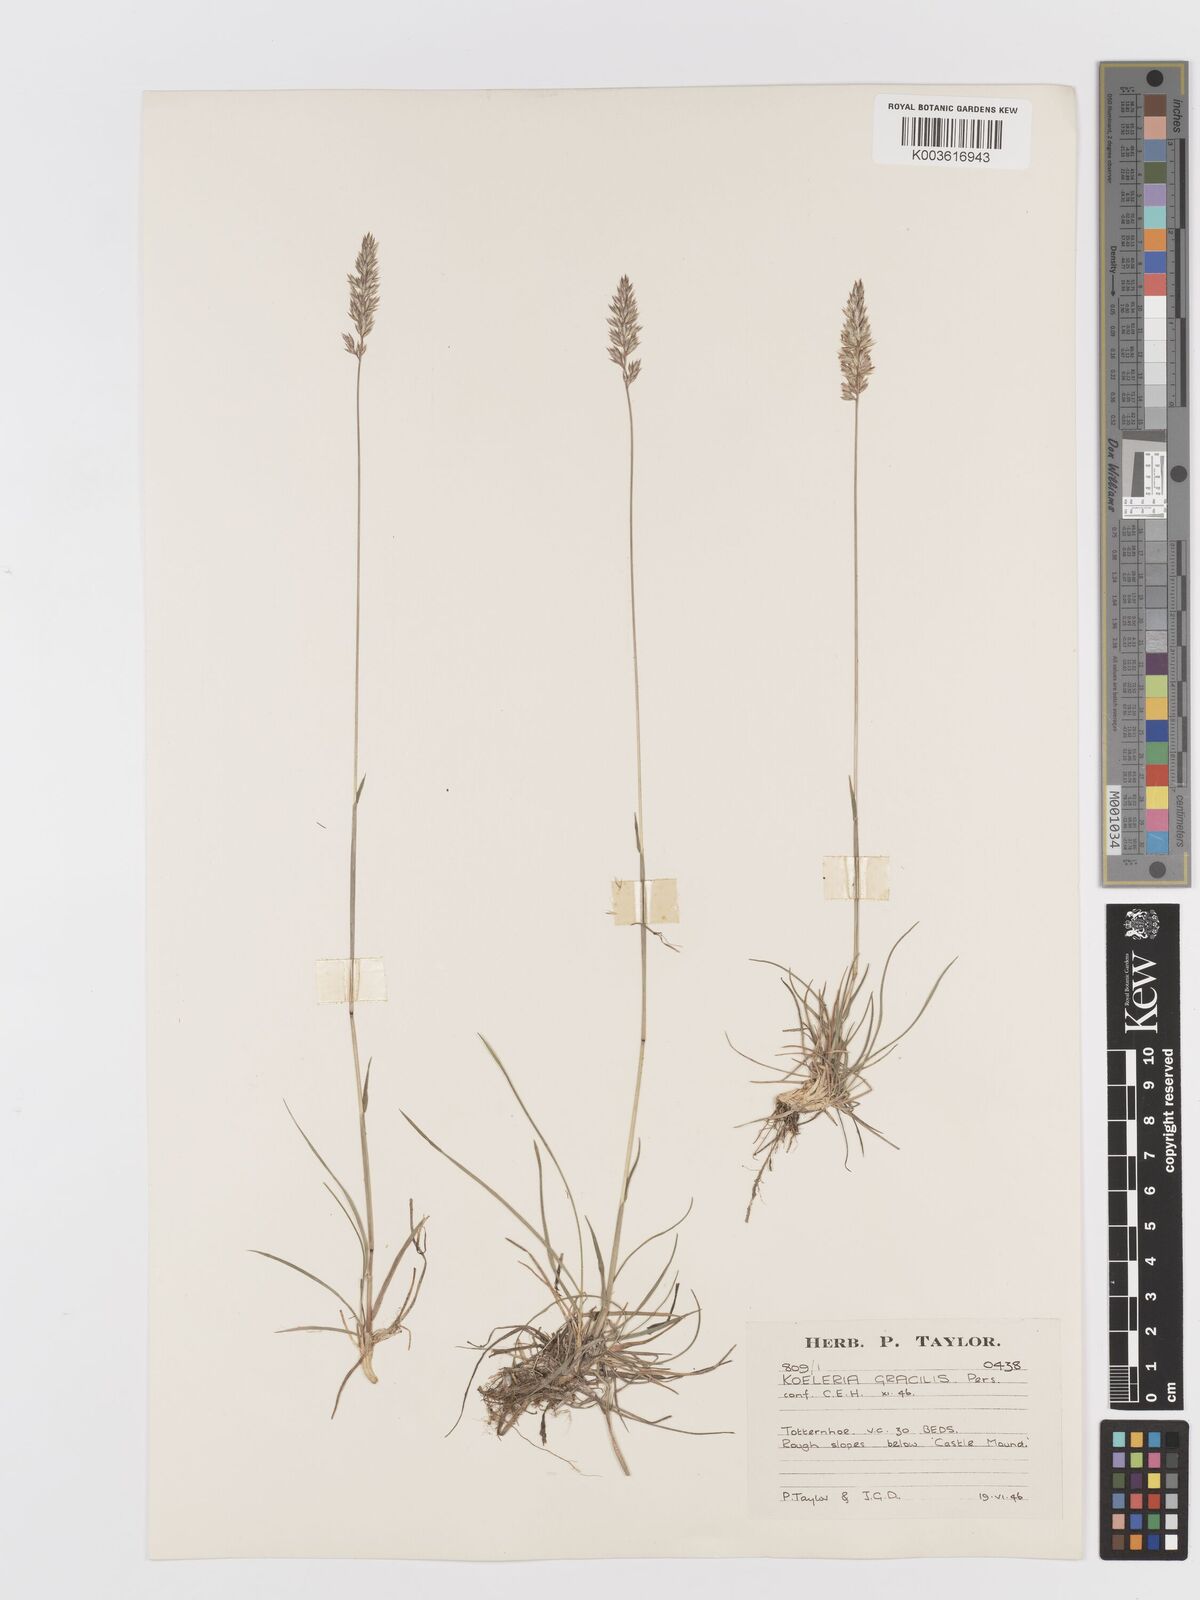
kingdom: Plantae
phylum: Tracheophyta
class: Liliopsida
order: Poales
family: Poaceae
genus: Koeleria
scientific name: Koeleria macrantha
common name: Crested hair-grass
